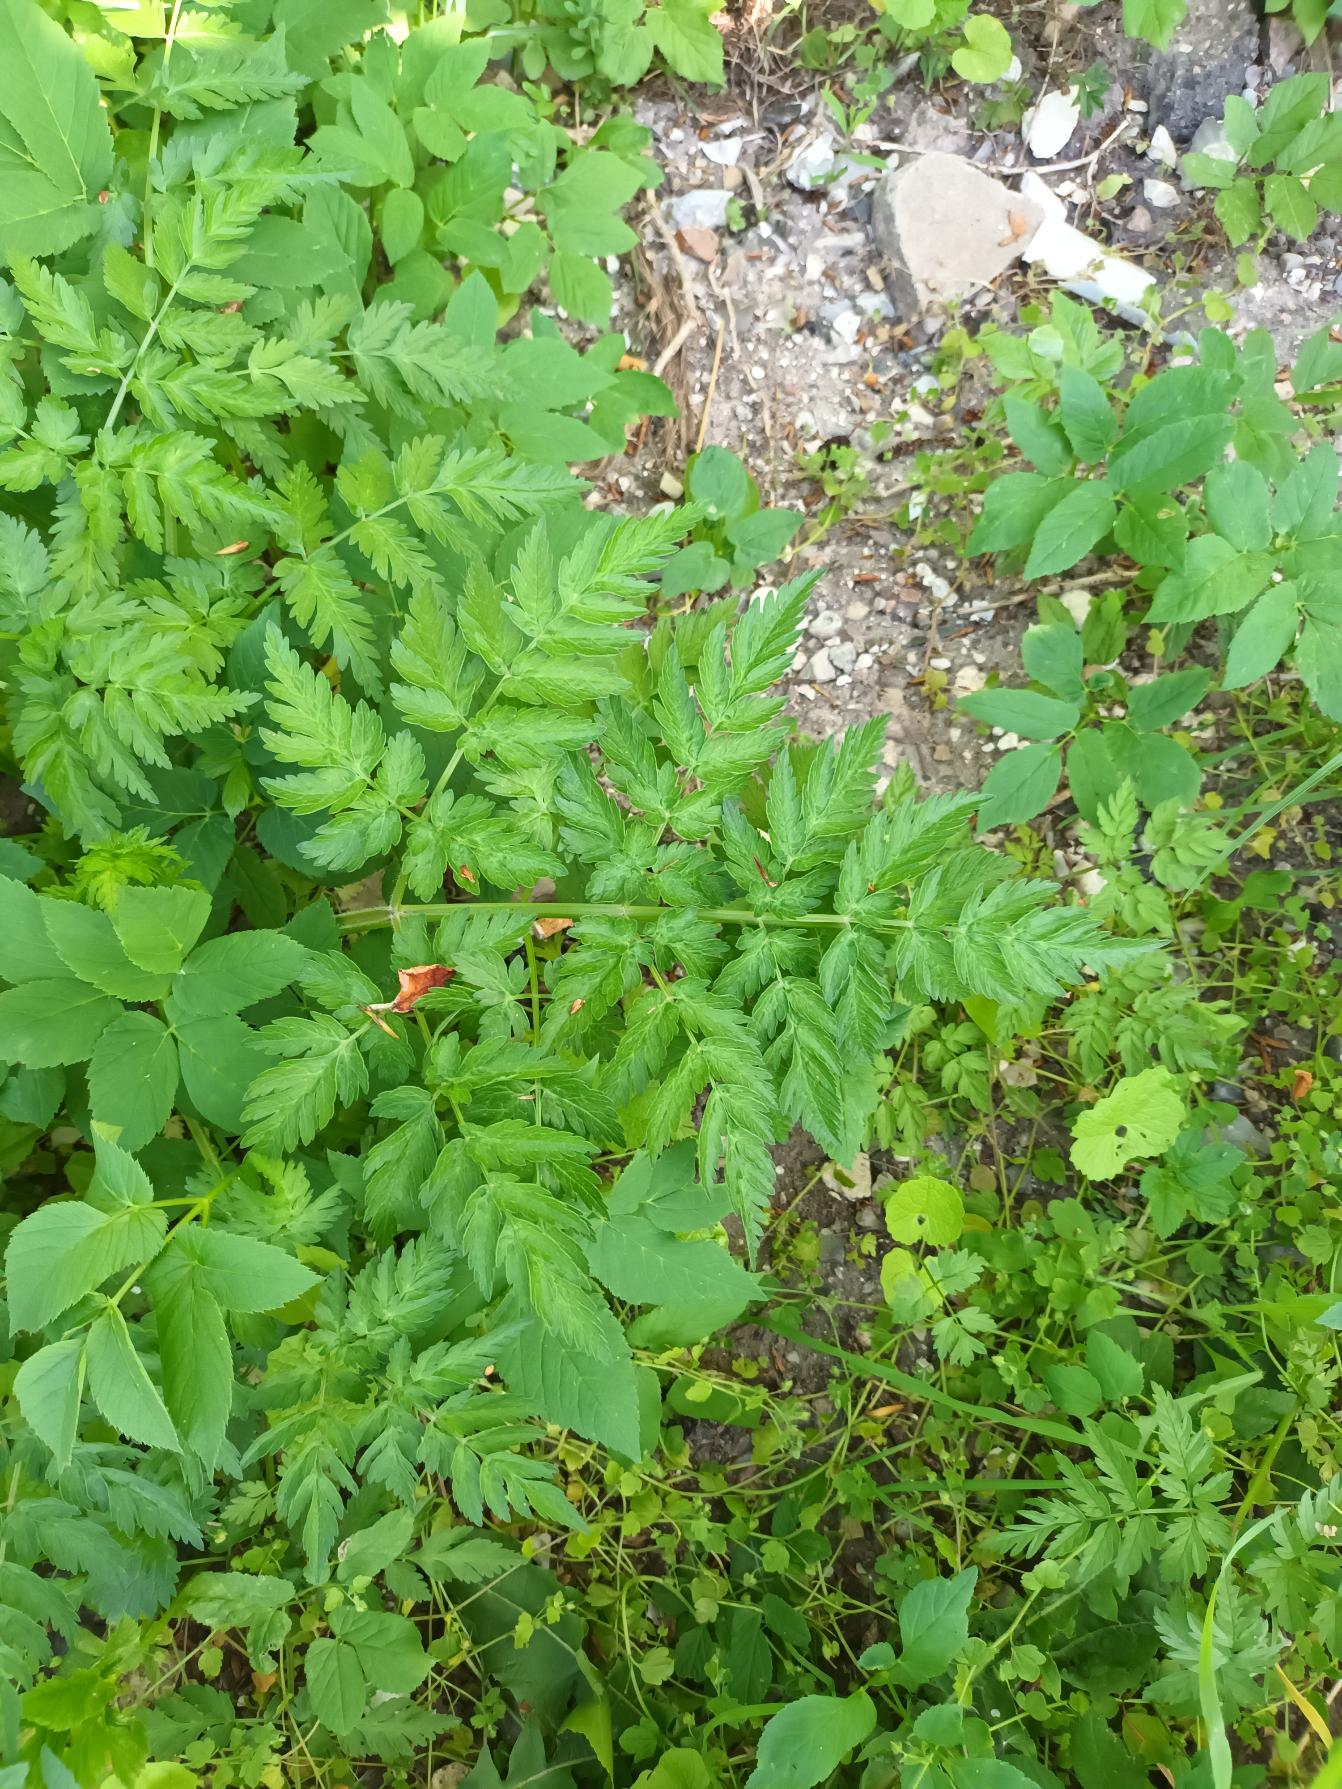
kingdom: Plantae
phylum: Tracheophyta
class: Magnoliopsida
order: Apiales
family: Apiaceae
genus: Anthriscus
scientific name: Anthriscus sylvestris
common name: Vild kørvel
